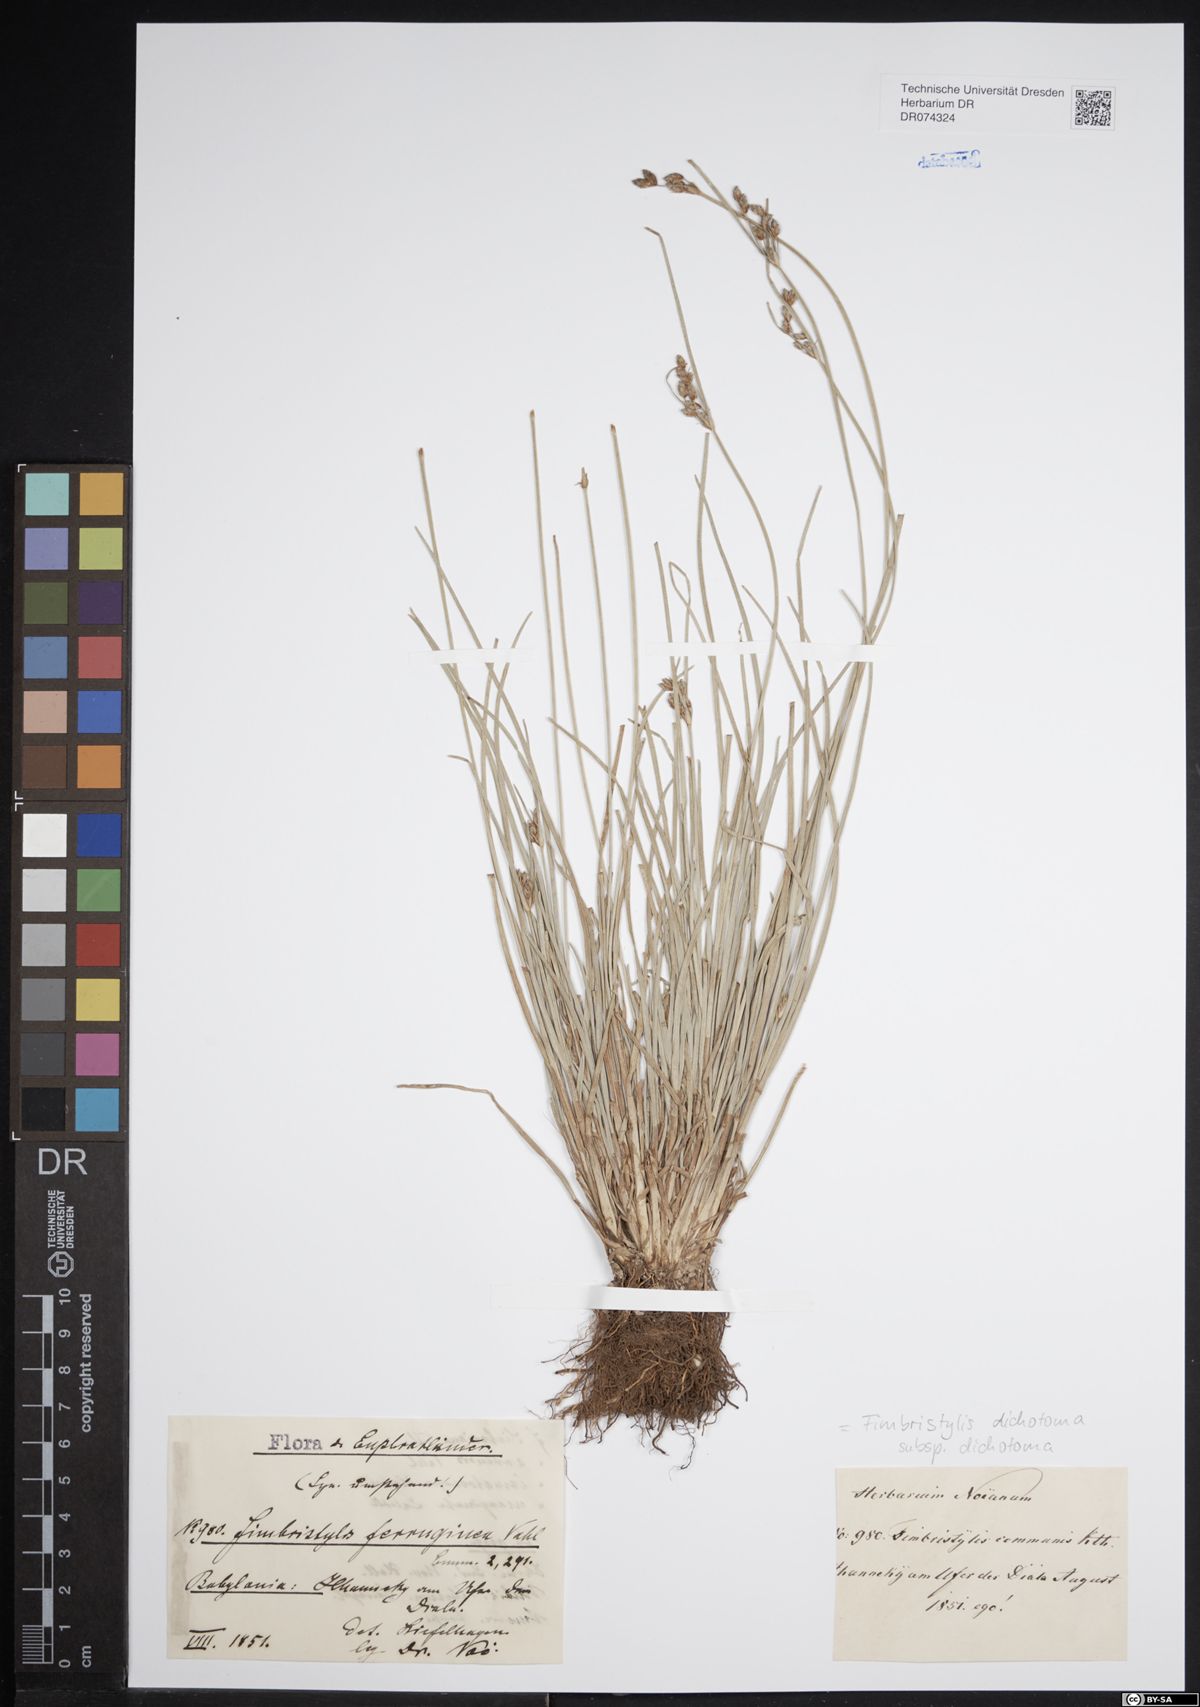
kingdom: Plantae
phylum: Tracheophyta
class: Liliopsida
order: Poales
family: Cyperaceae
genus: Fimbristylis
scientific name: Fimbristylis dichotoma
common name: Forked fimbry
